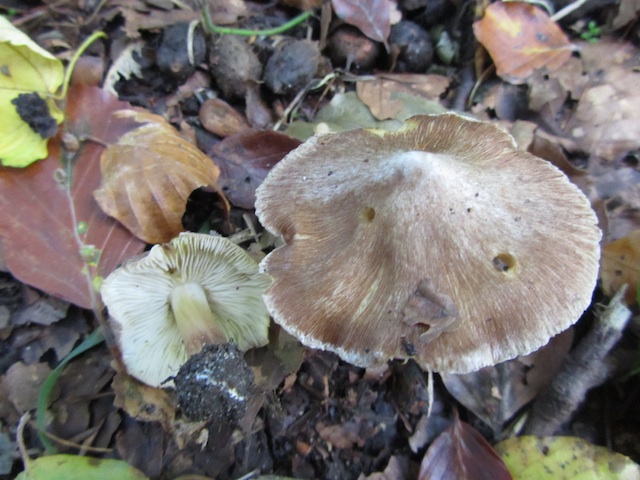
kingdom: Fungi
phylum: Basidiomycota
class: Agaricomycetes
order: Agaricales
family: Inocybaceae
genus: Inosperma
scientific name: Inosperma
